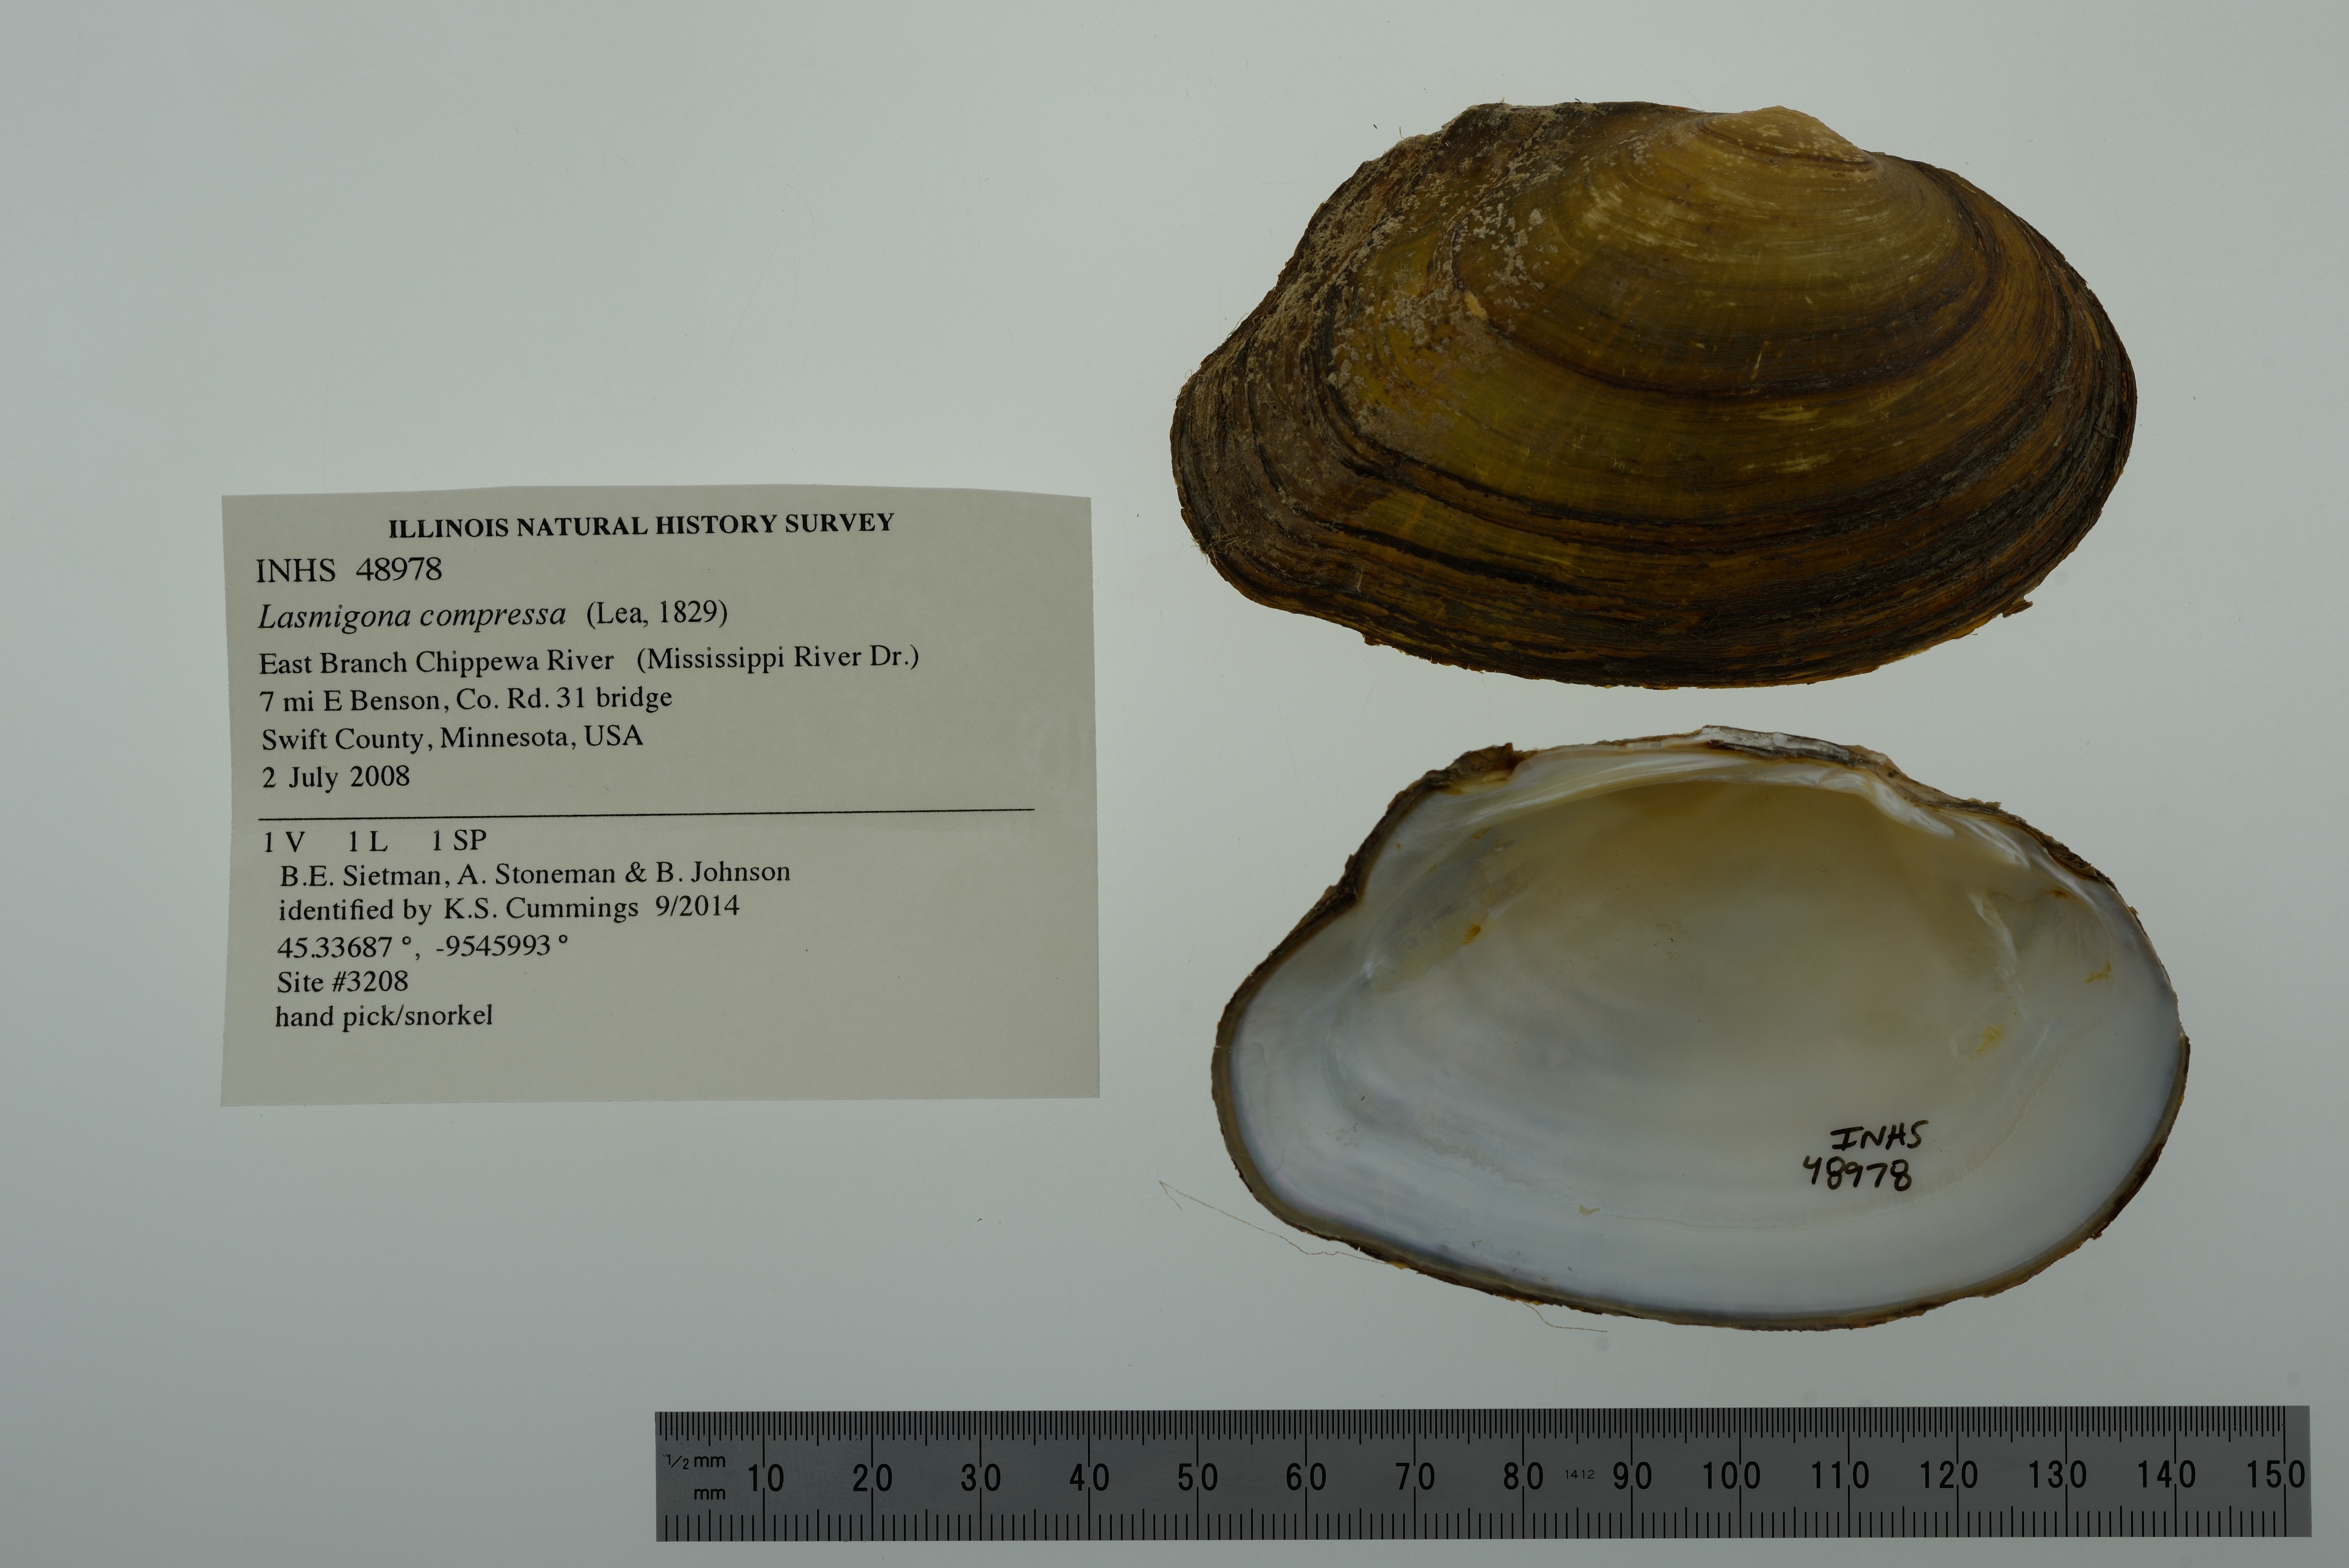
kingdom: Animalia
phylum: Mollusca
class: Bivalvia
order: Unionida
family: Unionidae
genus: Lasmigona
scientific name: Lasmigona compressa
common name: Creek heelsplitter
